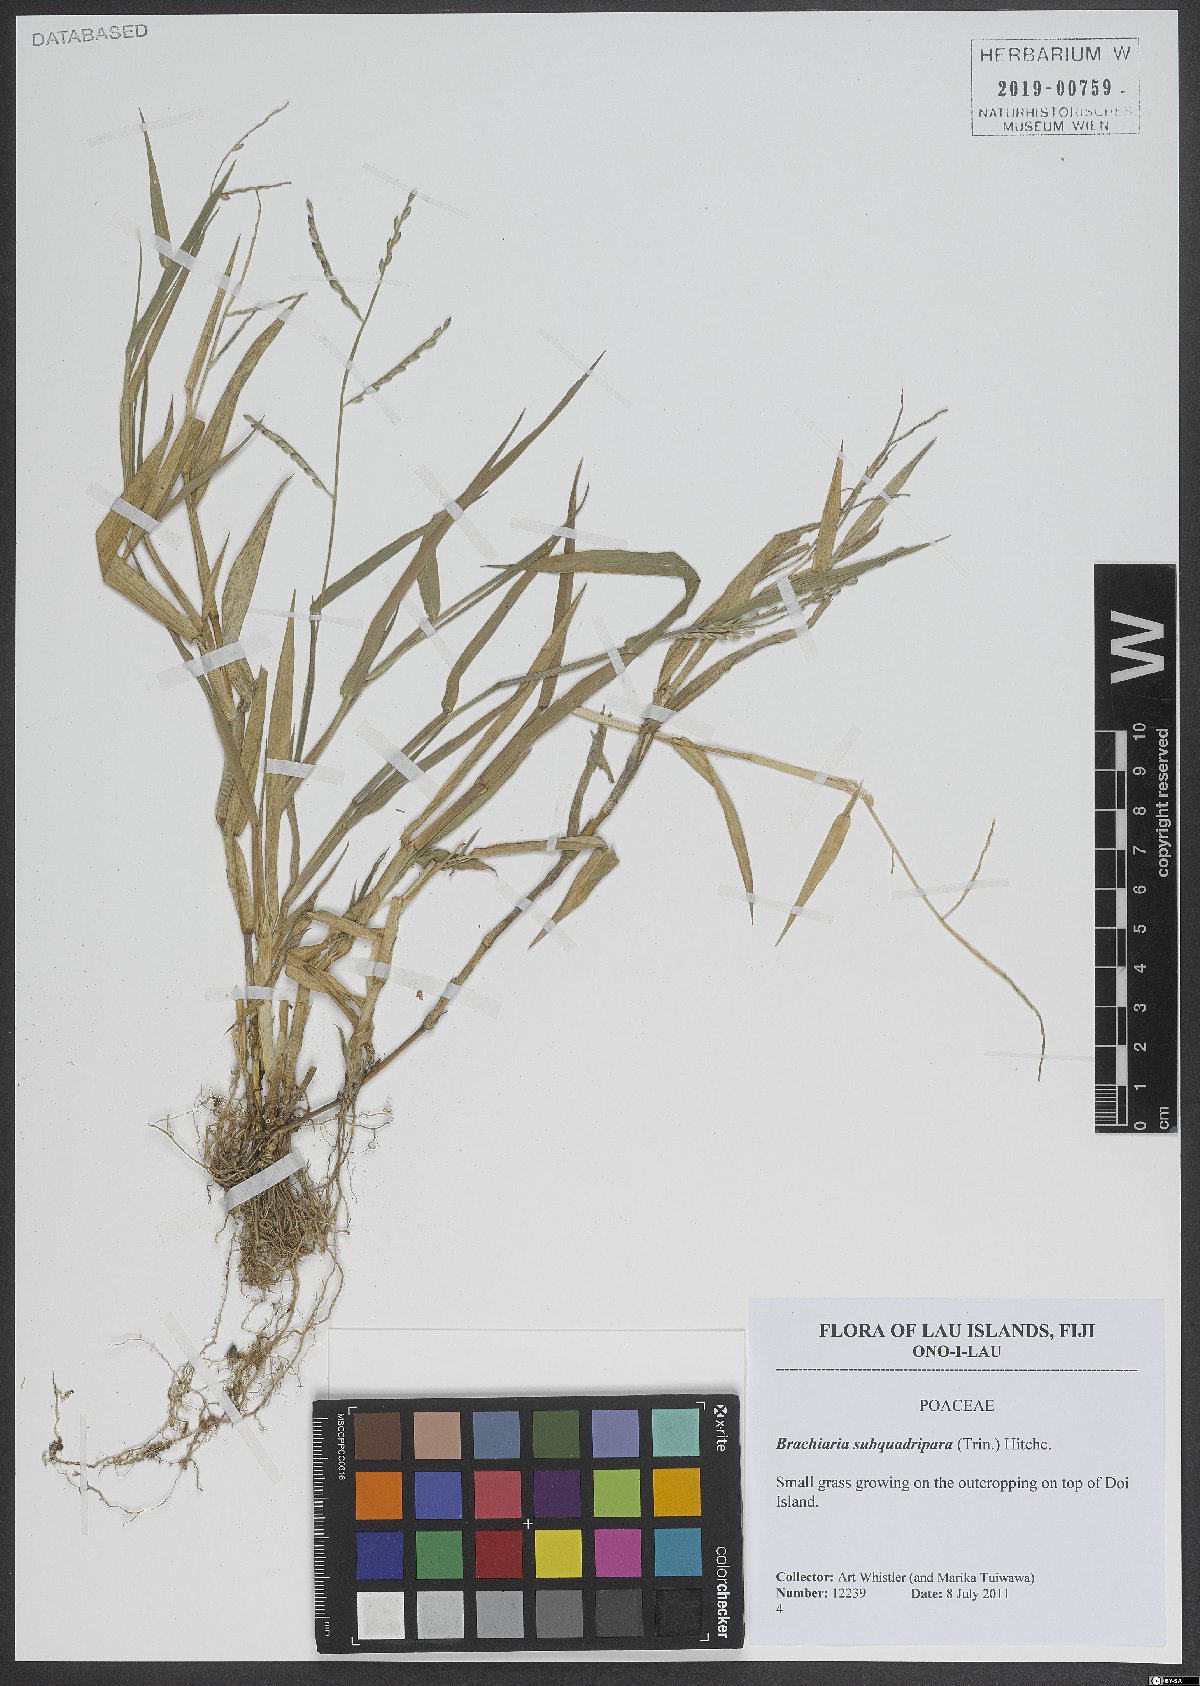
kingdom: Plantae
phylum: Tracheophyta
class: Liliopsida
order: Poales
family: Poaceae
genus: Urochloa
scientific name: Urochloa subquadripara
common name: Armgrass millet
